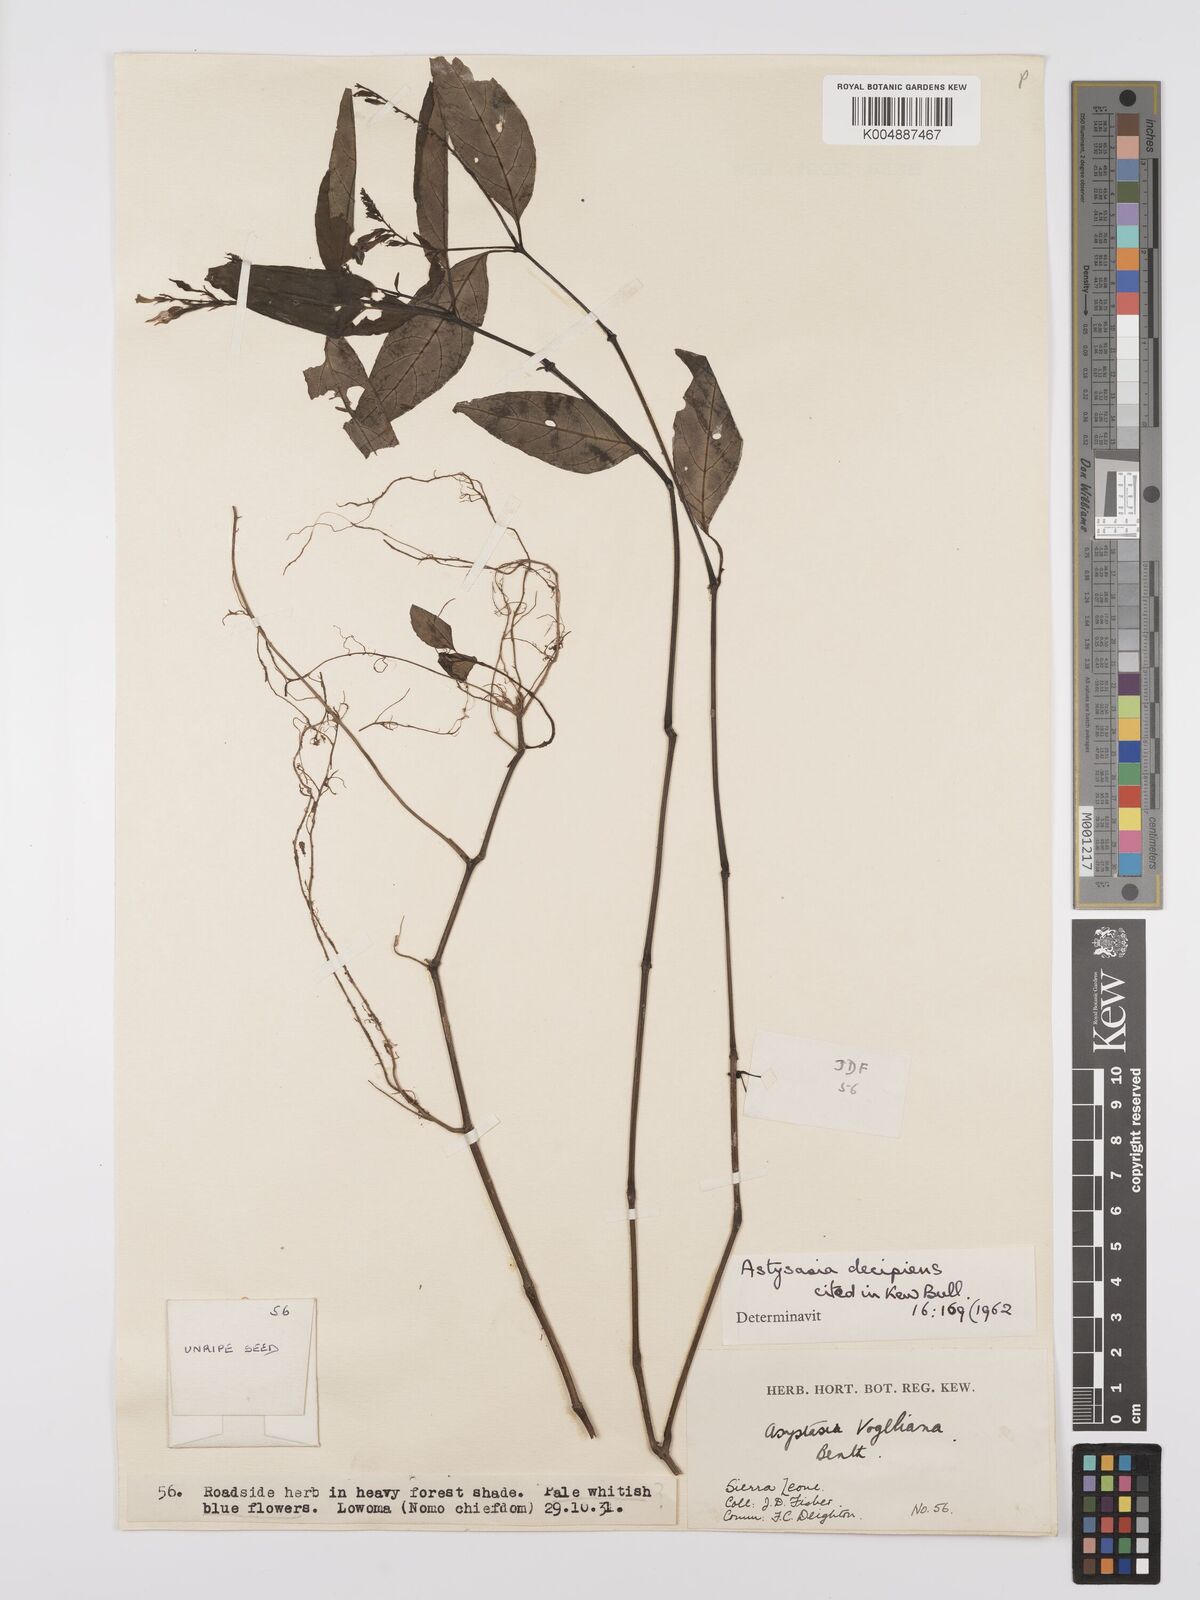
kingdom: Plantae
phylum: Tracheophyta
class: Magnoliopsida
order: Lamiales
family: Acanthaceae
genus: Asystasia
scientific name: Asystasia leptostachya
